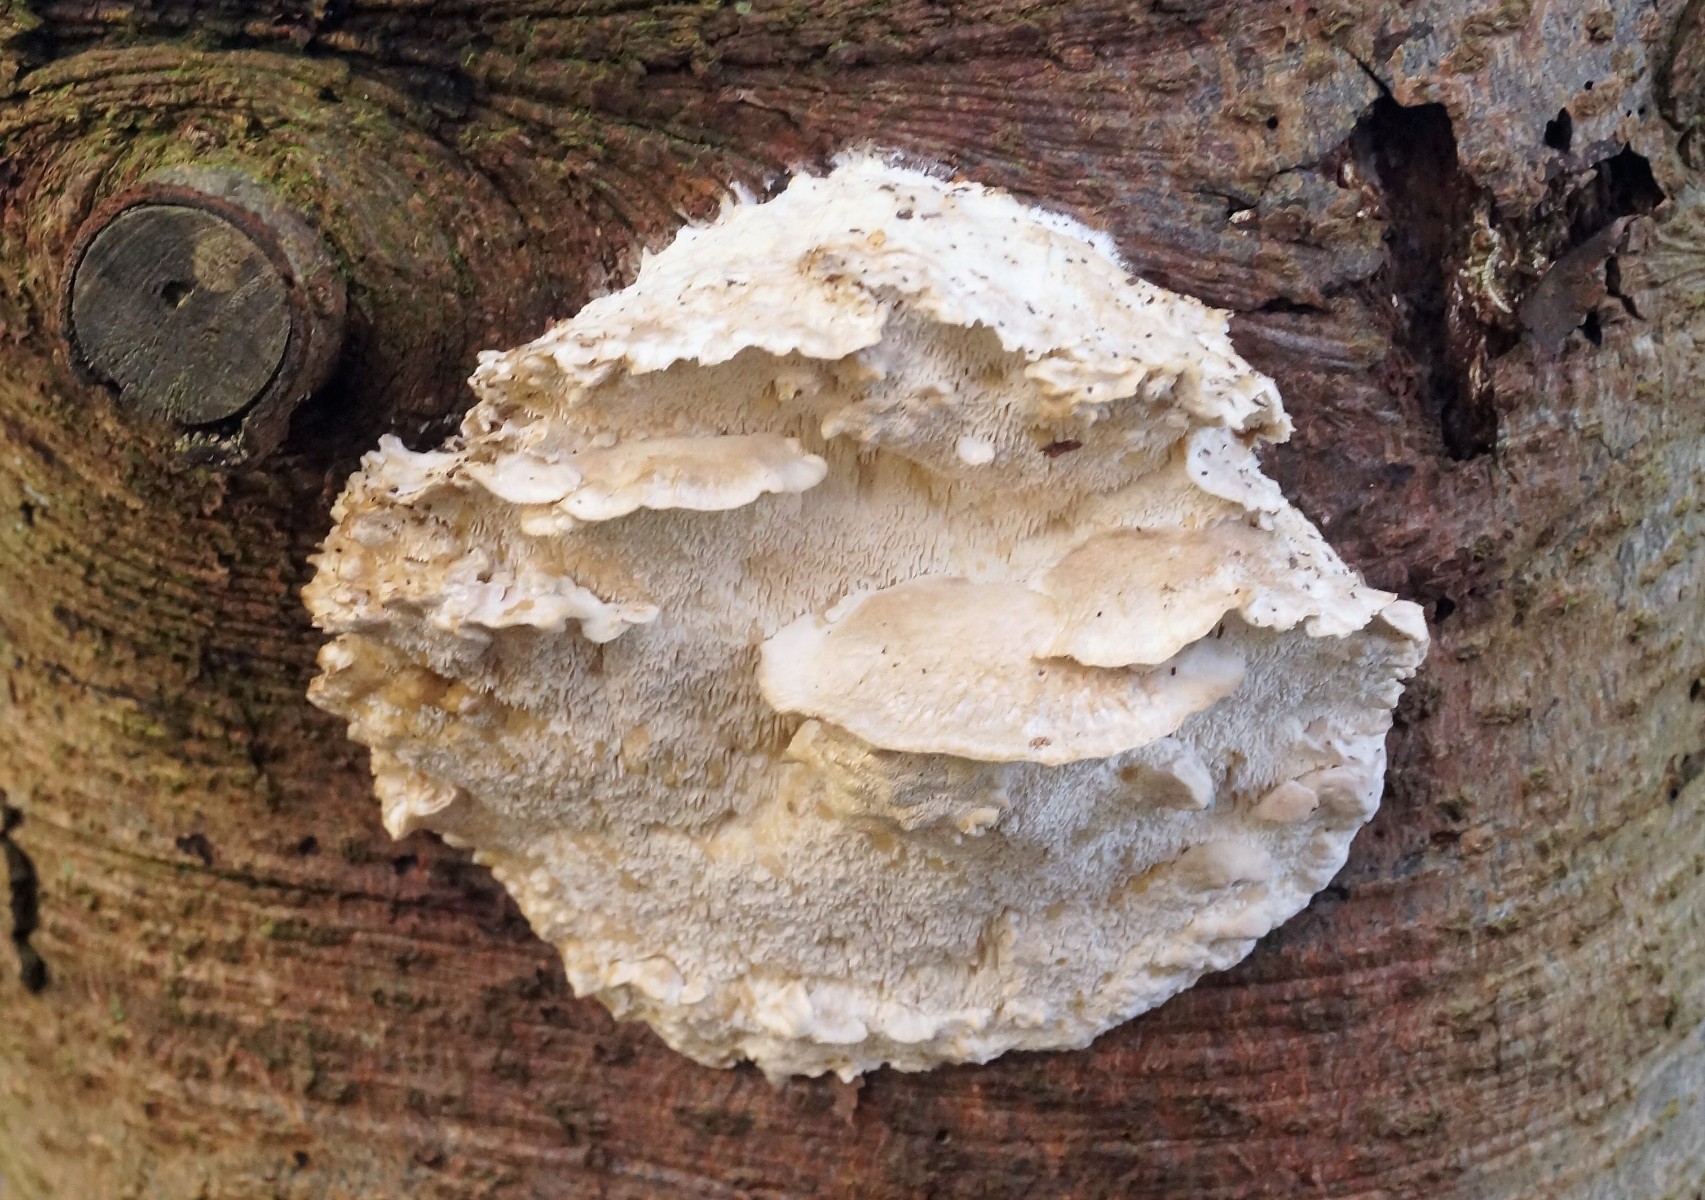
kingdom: Fungi
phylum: Basidiomycota
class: Agaricomycetes
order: Polyporales
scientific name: Polyporales
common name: poresvampordenen
